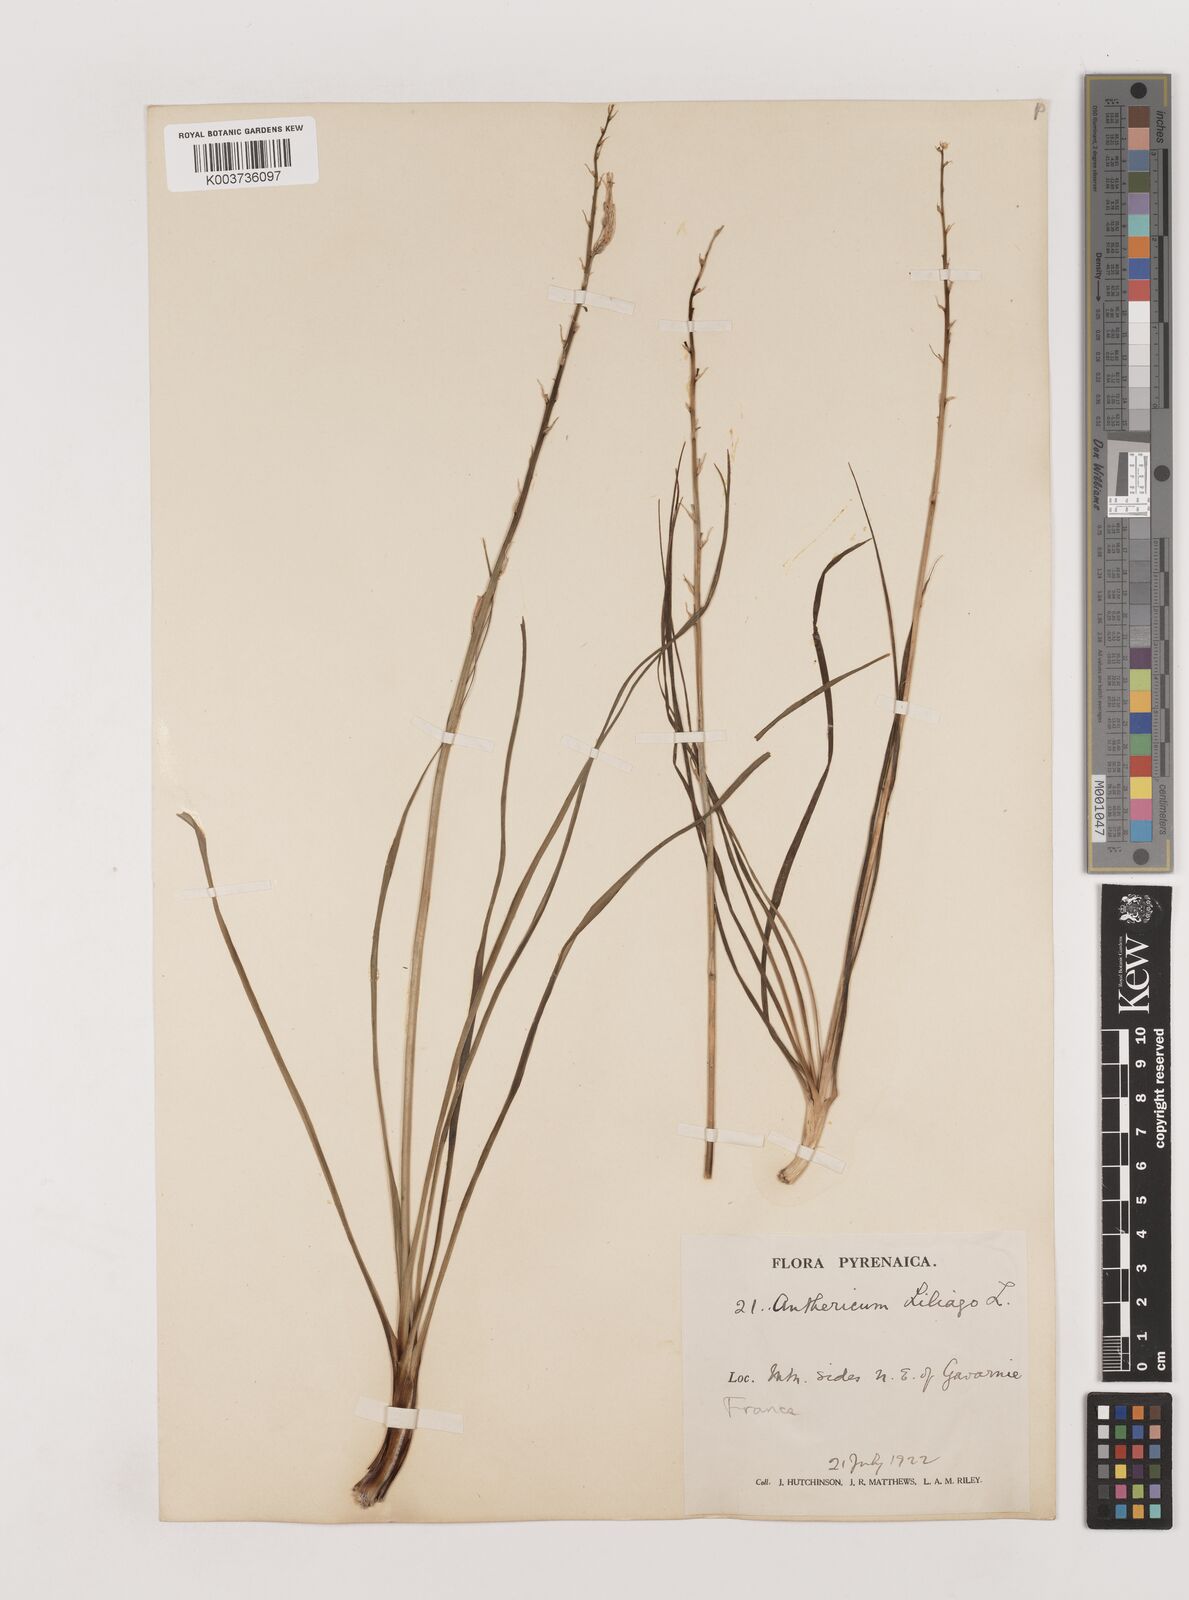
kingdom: Plantae
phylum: Tracheophyta
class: Liliopsida
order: Asparagales
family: Asparagaceae
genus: Anthericum
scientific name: Anthericum liliago
